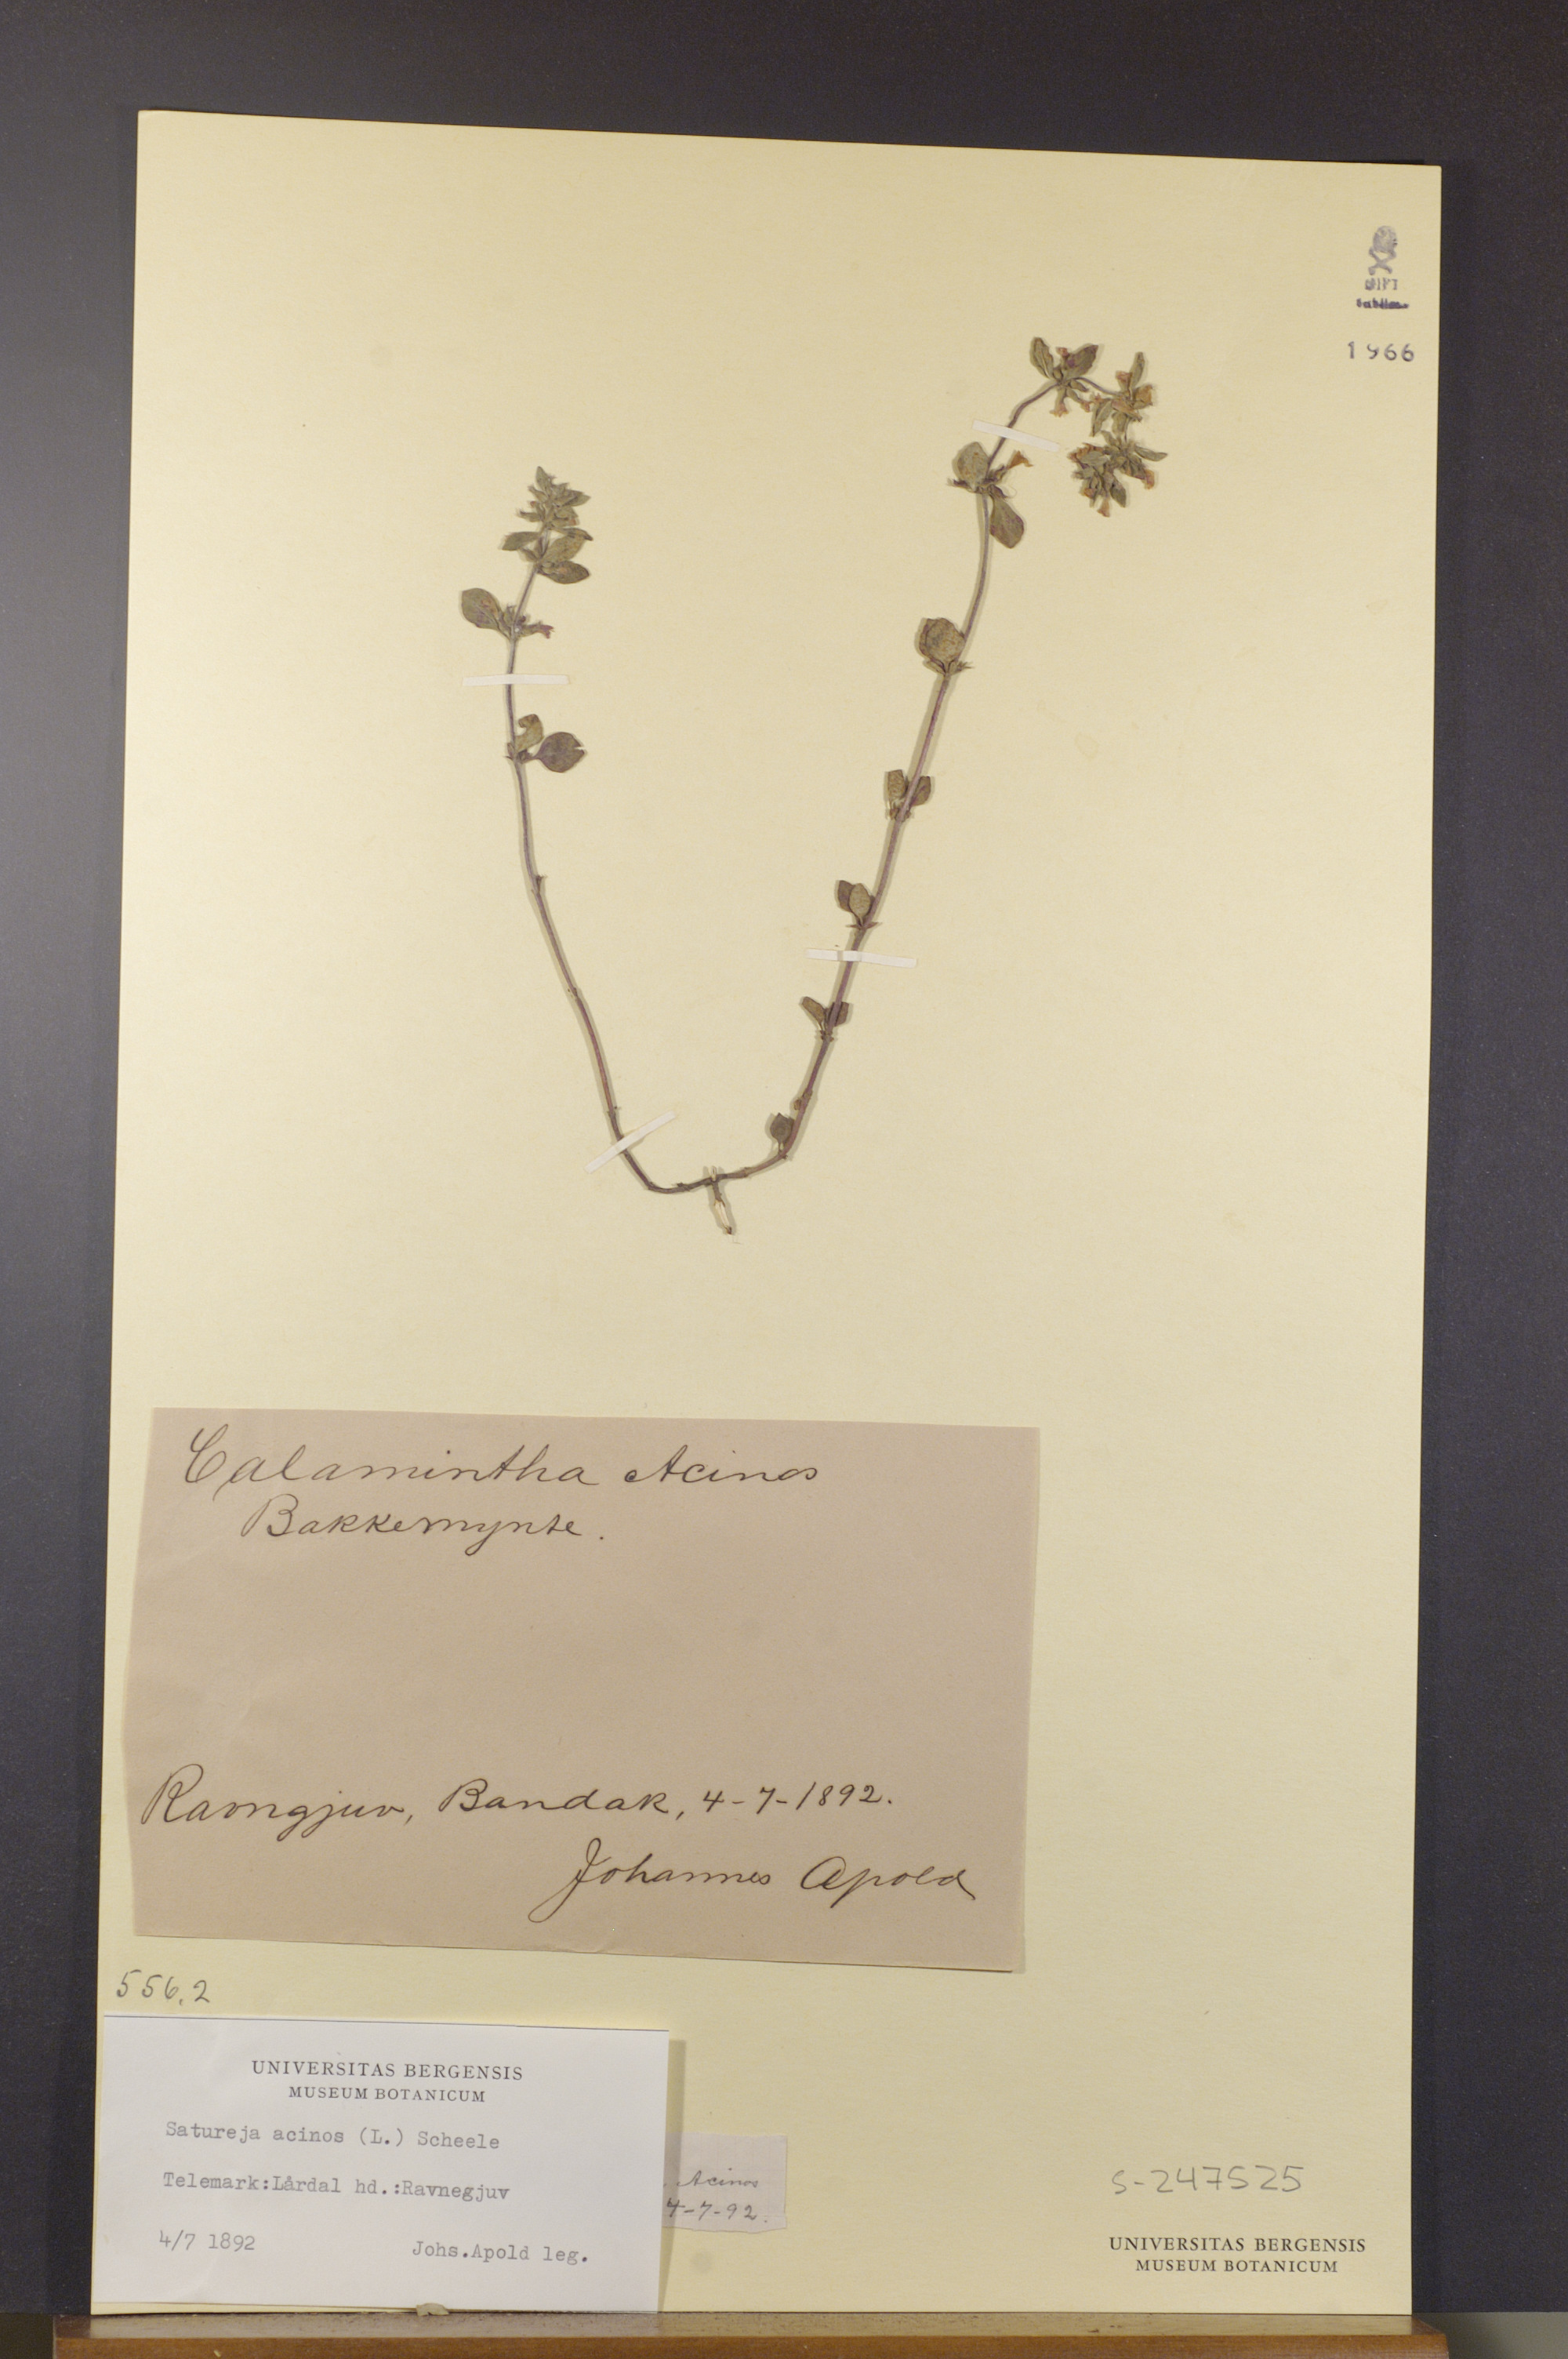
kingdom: Plantae
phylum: Tracheophyta
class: Magnoliopsida
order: Lamiales
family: Lamiaceae
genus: Clinopodium
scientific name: Clinopodium acinos
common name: Basil thyme
